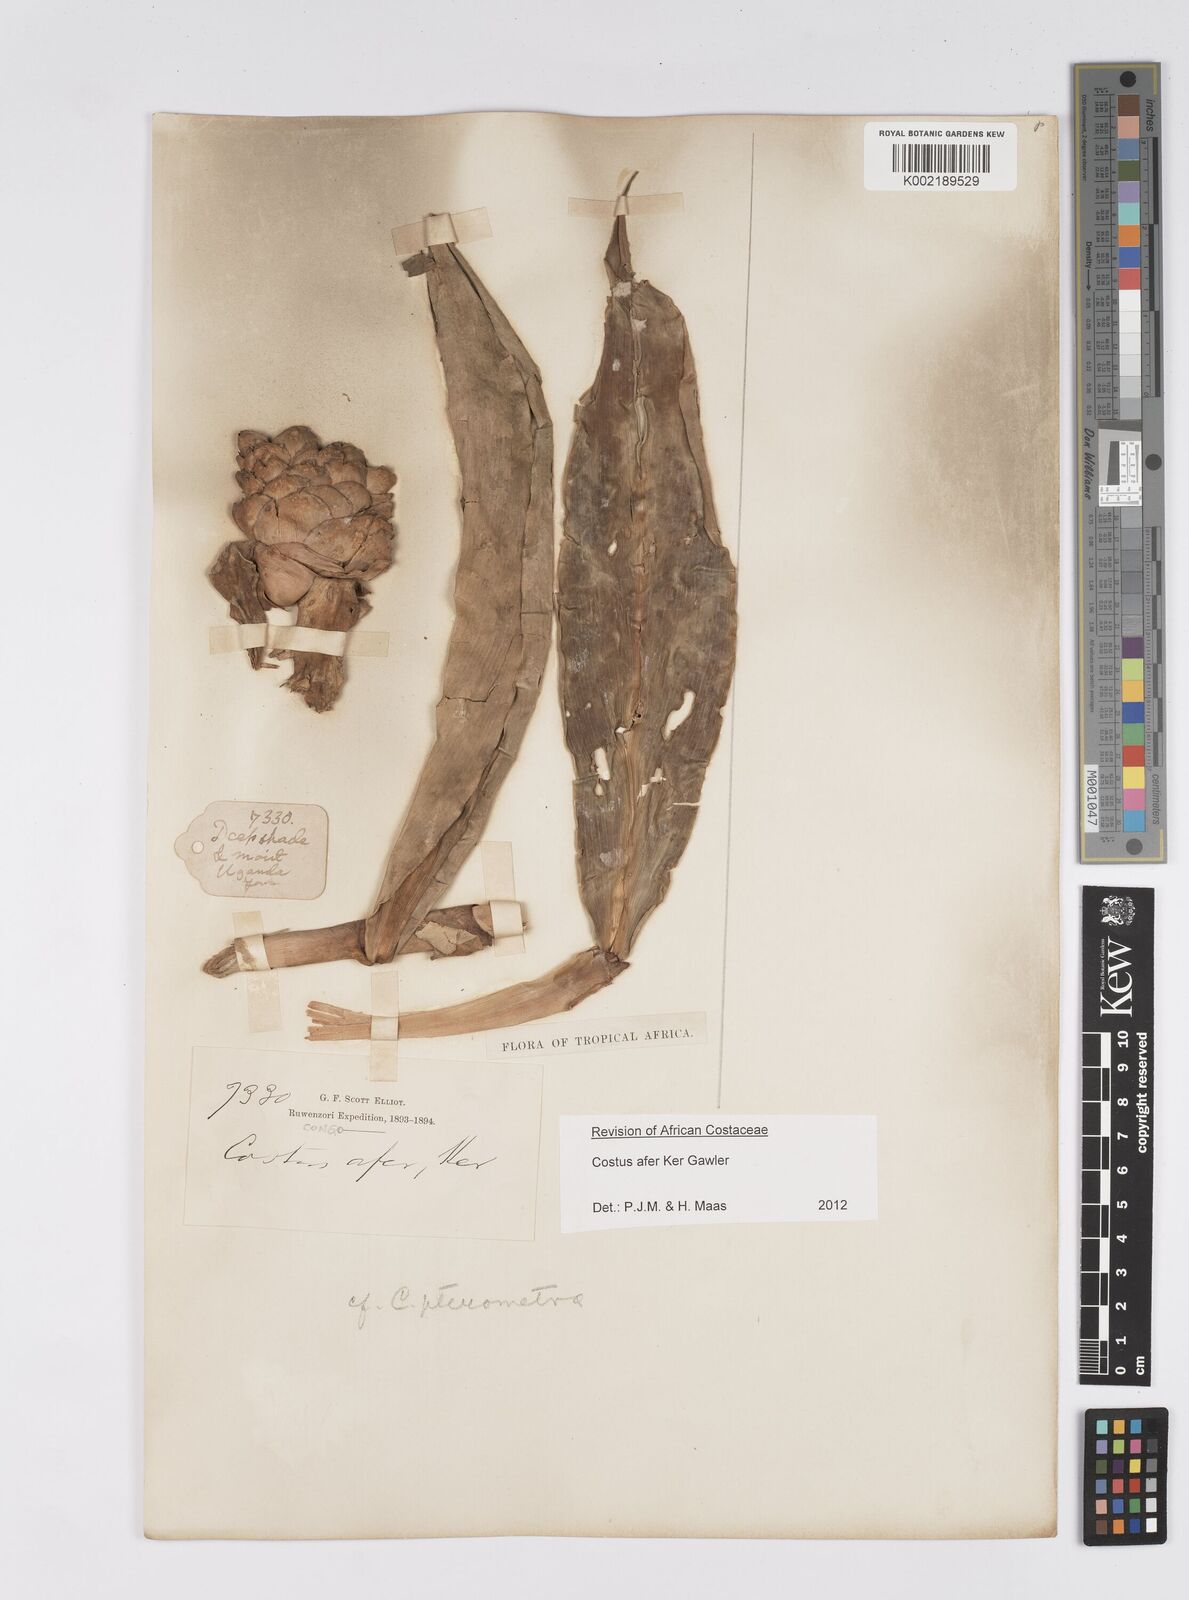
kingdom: Plantae
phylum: Tracheophyta
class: Liliopsida
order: Zingiberales
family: Costaceae
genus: Costus
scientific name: Costus afer
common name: Spiral-ginger
